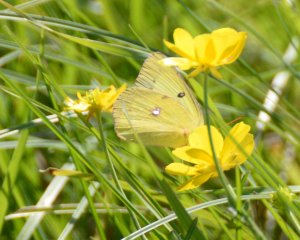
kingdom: Animalia
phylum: Arthropoda
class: Insecta
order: Lepidoptera
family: Pieridae
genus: Colias
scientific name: Colias
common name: Clouded Yellows
